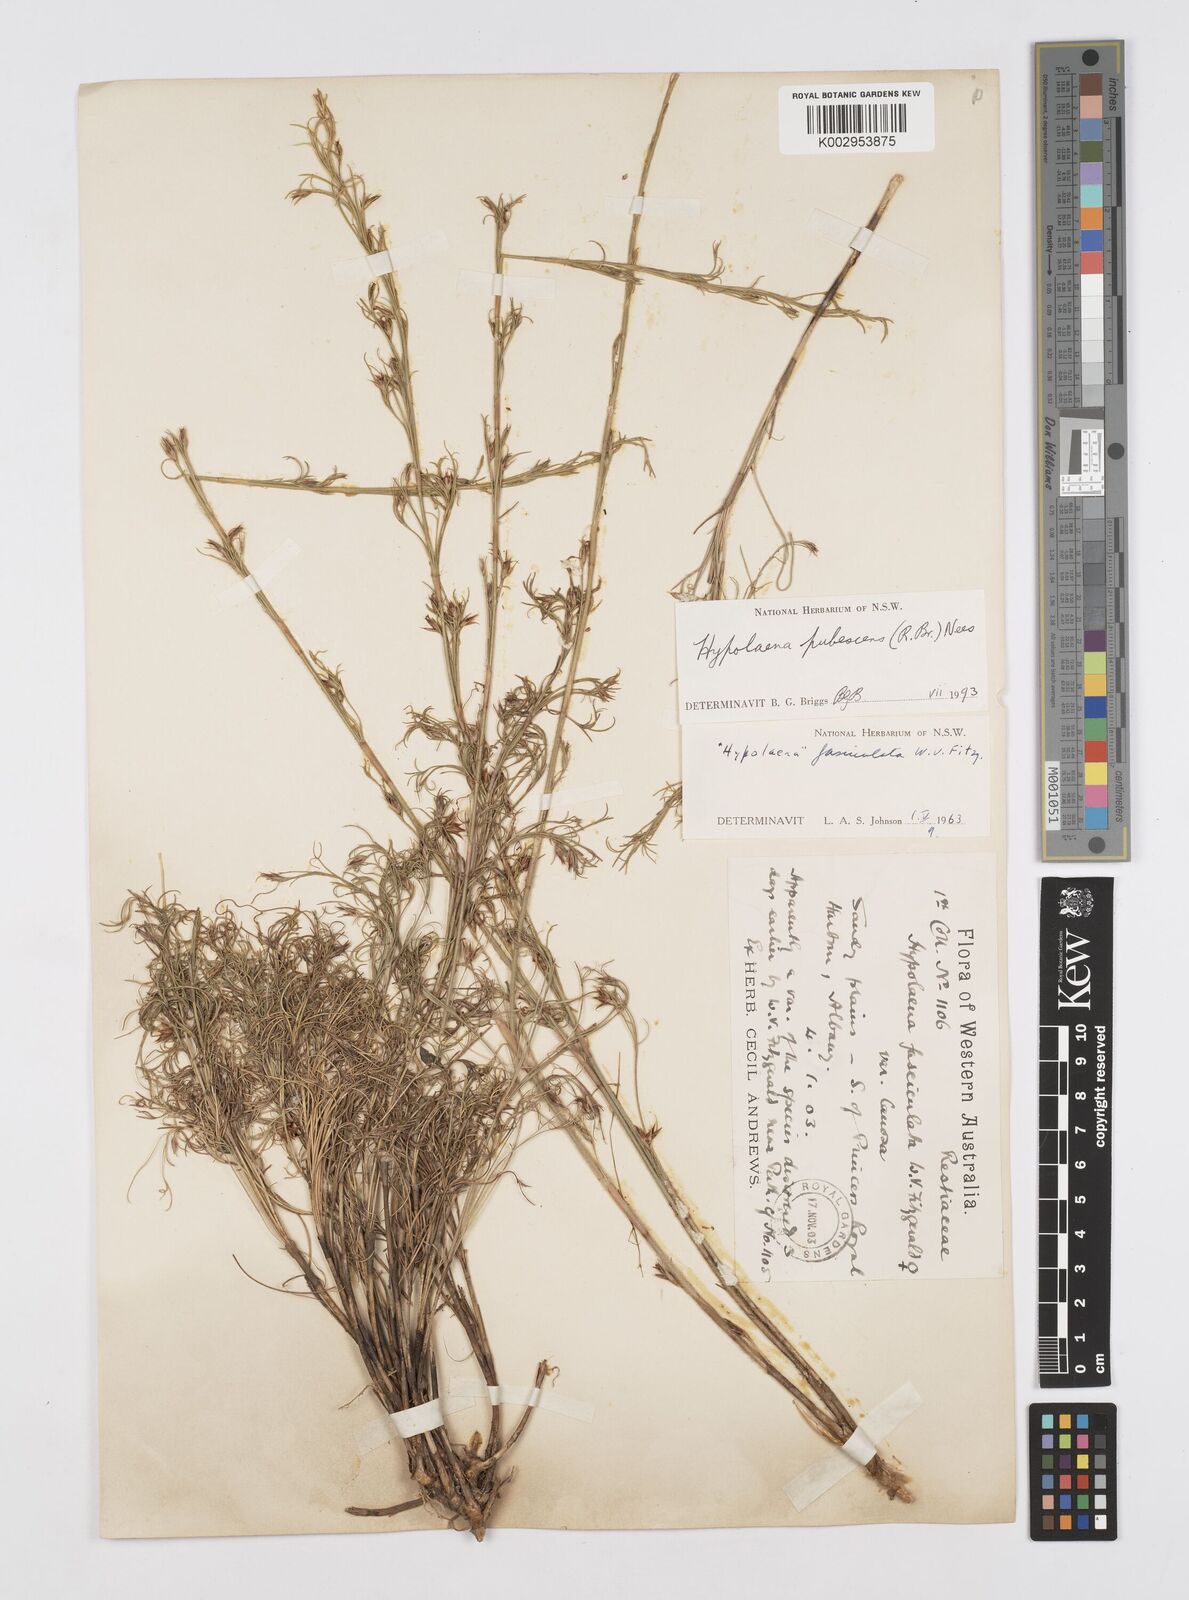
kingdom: Plantae
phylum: Tracheophyta
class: Liliopsida
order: Poales
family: Restionaceae
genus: Hypolaena
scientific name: Hypolaena pubescens
